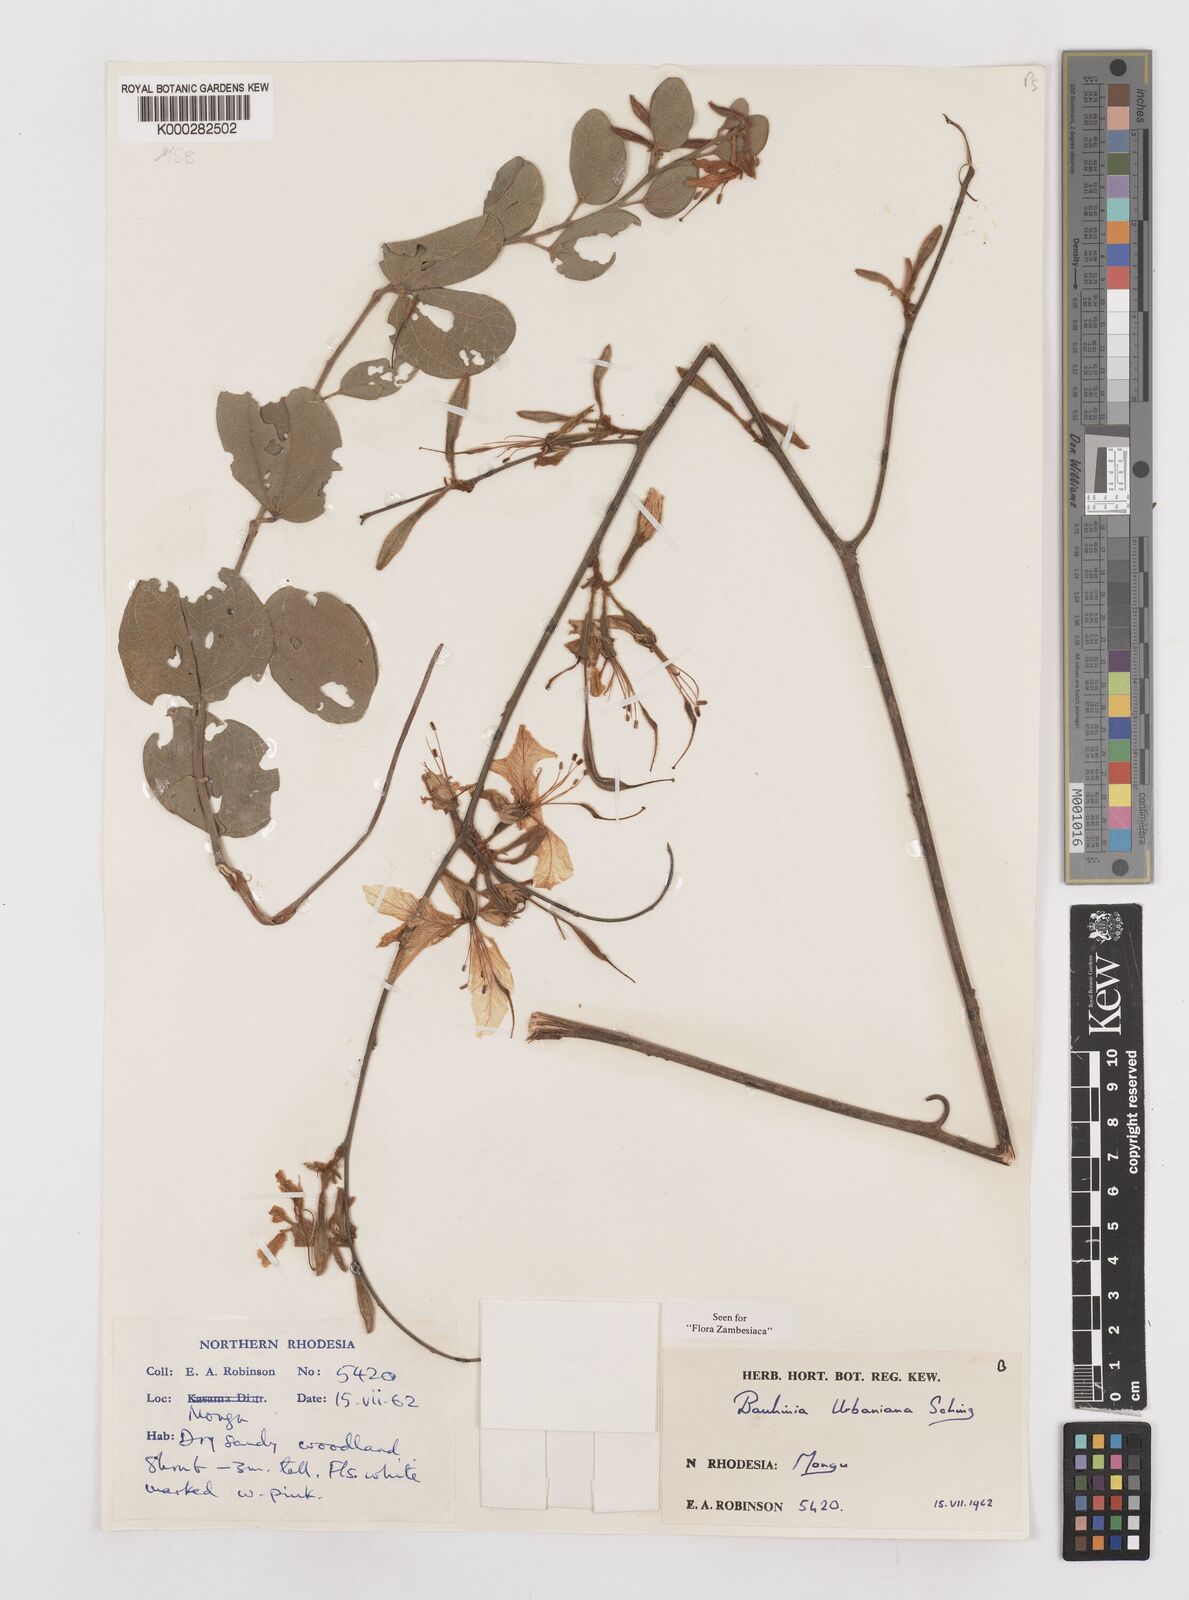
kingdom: Plantae
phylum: Tracheophyta
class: Magnoliopsida
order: Fabales
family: Fabaceae
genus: Bauhinia
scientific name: Bauhinia urbaniana
